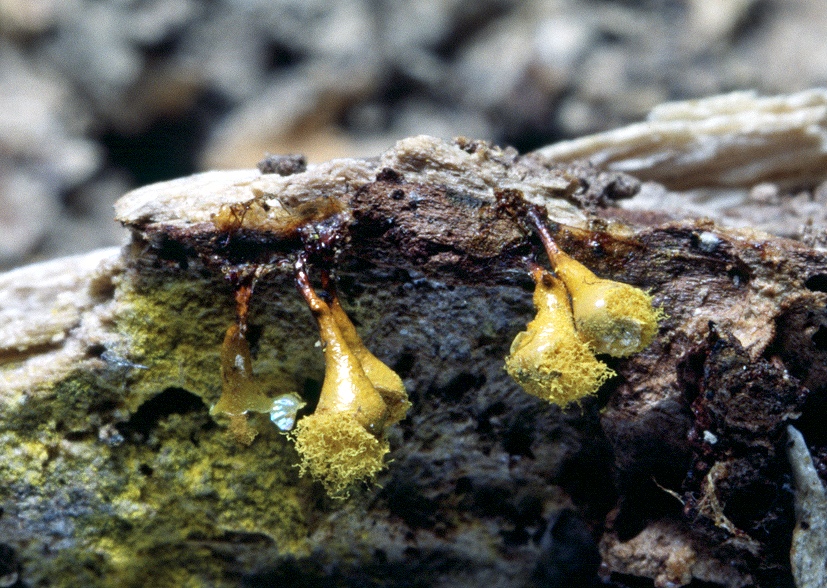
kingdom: Protozoa
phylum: Mycetozoa
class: Myxomycetes
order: Trichiales
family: Arcyriaceae
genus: Hemitrichia
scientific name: Hemitrichia clavata
